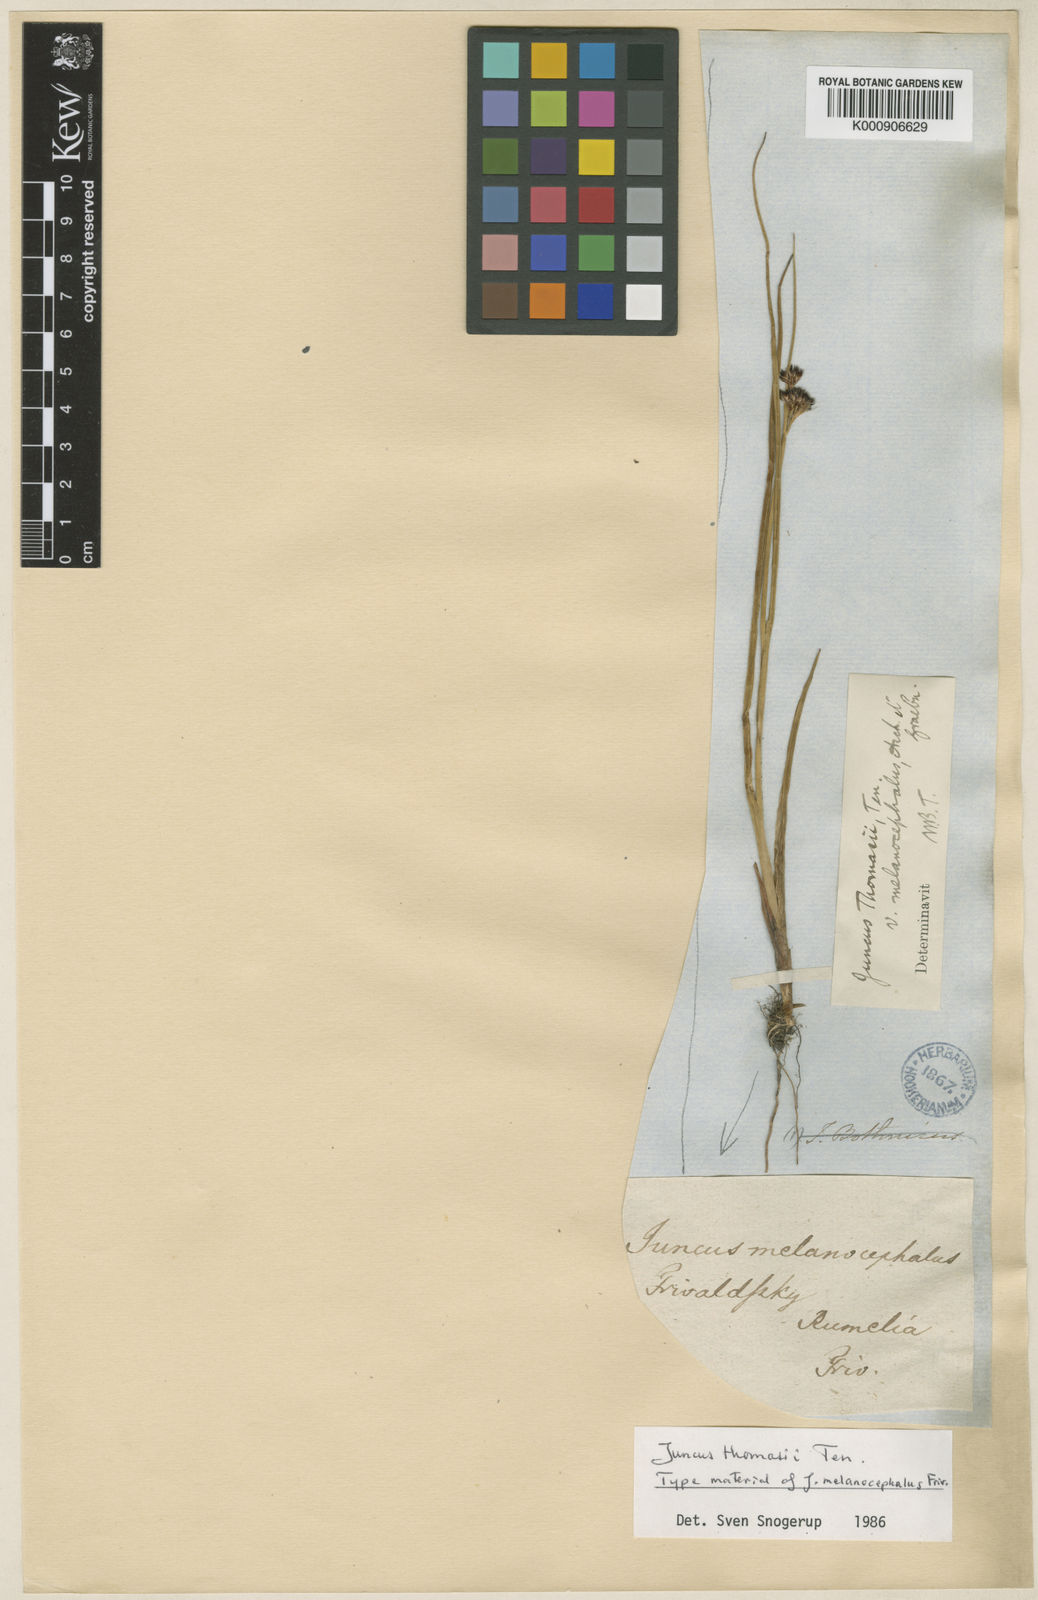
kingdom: Plantae
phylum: Tracheophyta
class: Liliopsida
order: Poales
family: Juncaceae
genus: Juncus
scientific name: Juncus thomasii
